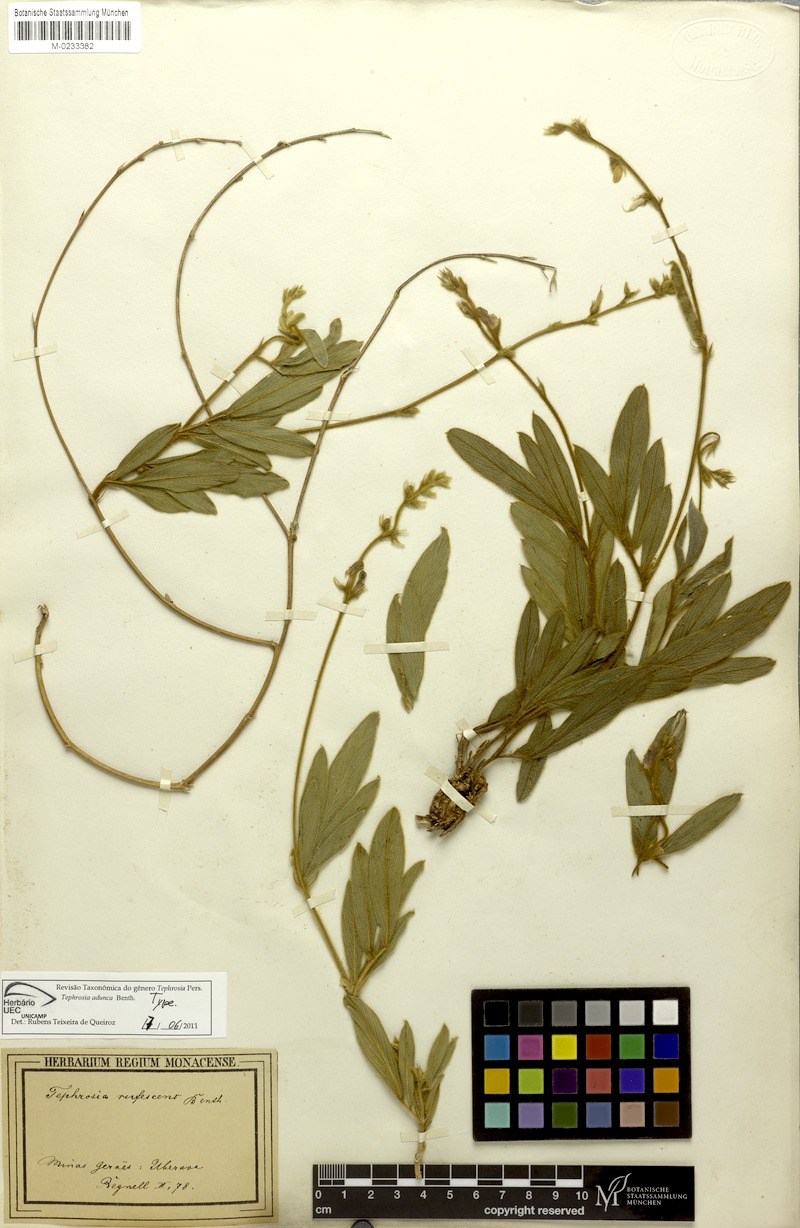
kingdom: Plantae
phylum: Tracheophyta
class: Magnoliopsida
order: Fabales
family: Fabaceae
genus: Tephrosia
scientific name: Tephrosia adunca
